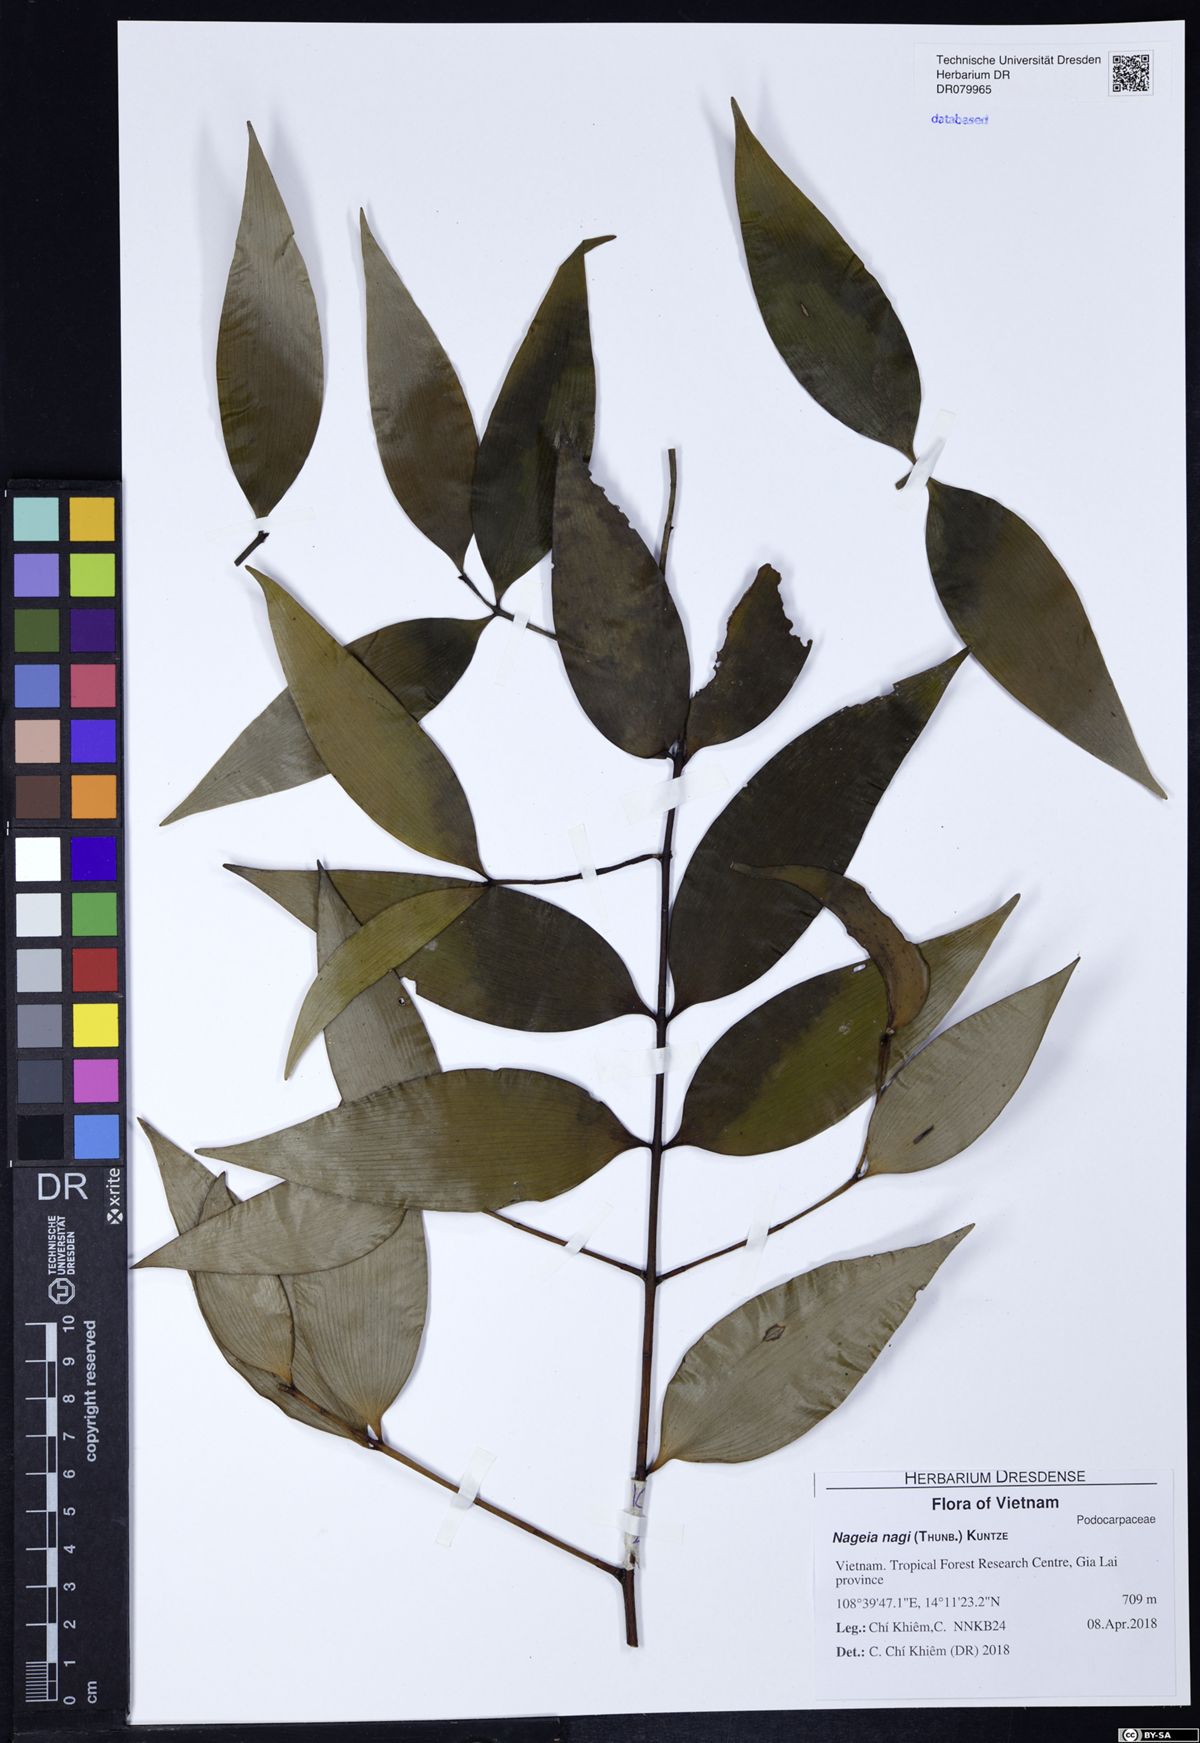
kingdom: Plantae
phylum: Tracheophyta
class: Pinopsida
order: Pinales
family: Podocarpaceae
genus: Nageia
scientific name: Nageia nagi
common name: Kaphal
